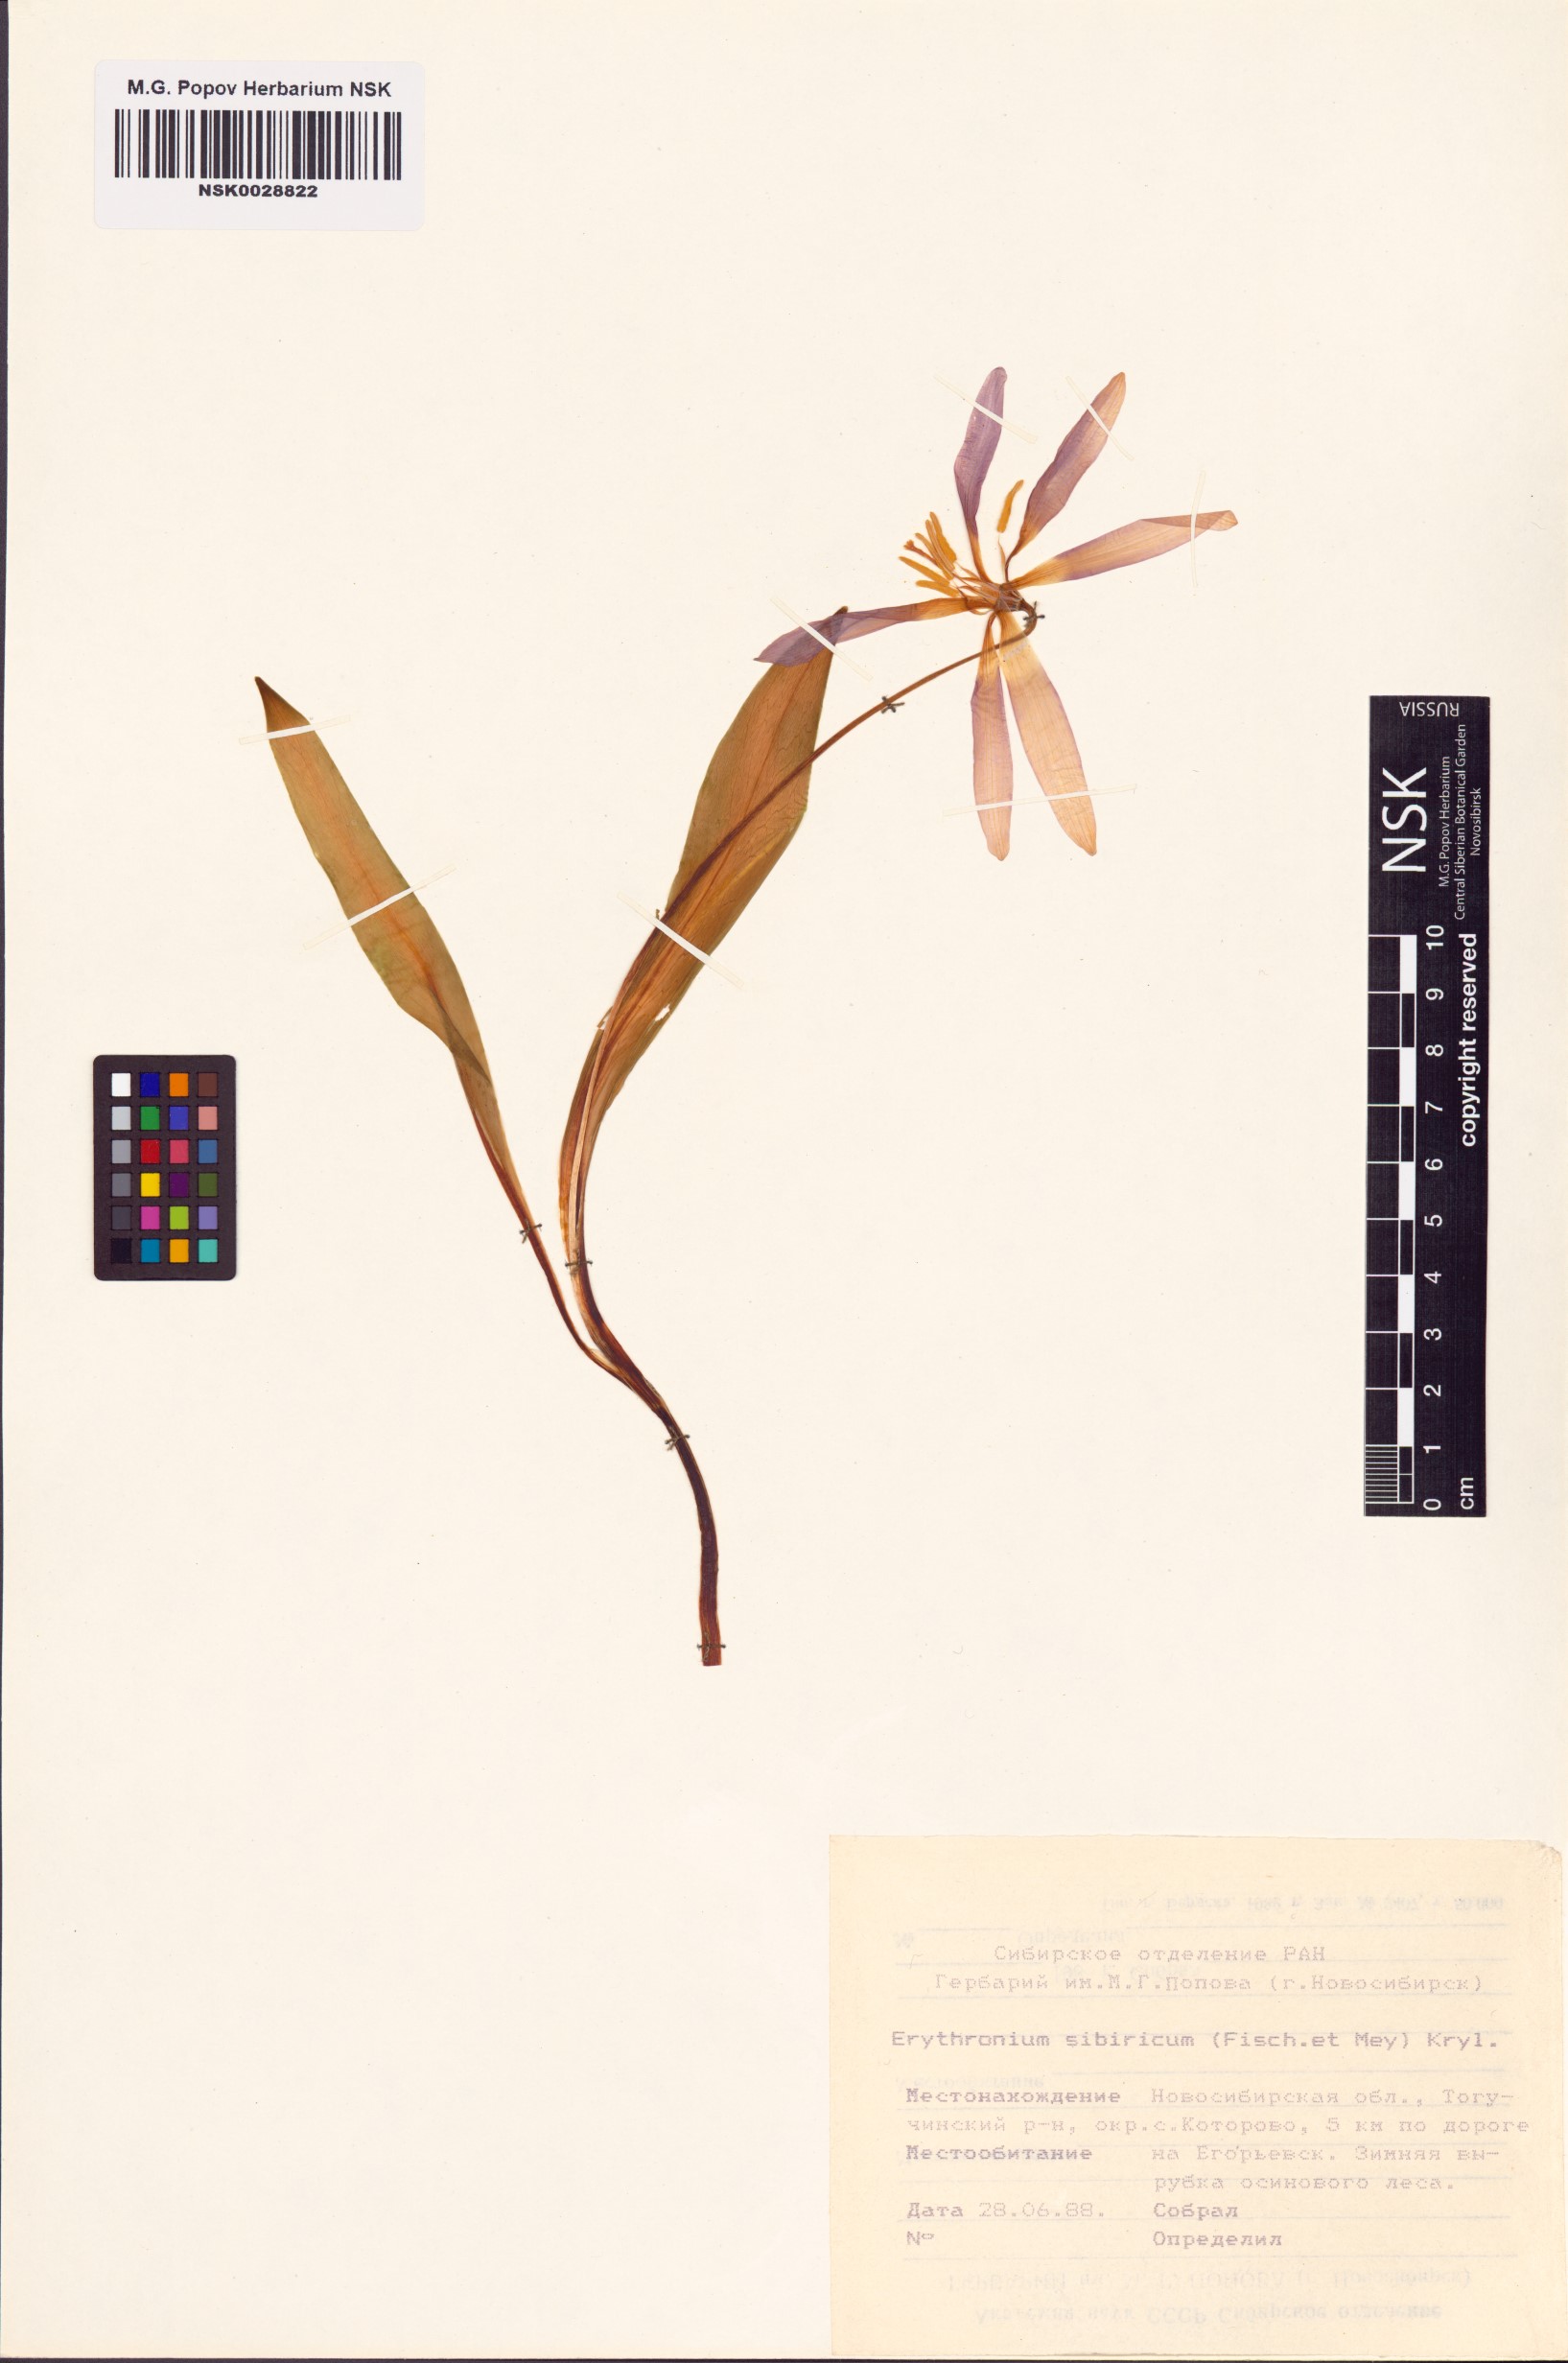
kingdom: Plantae
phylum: Tracheophyta
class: Liliopsida
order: Liliales
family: Liliaceae
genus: Erythronium
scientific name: Erythronium sibiricum
